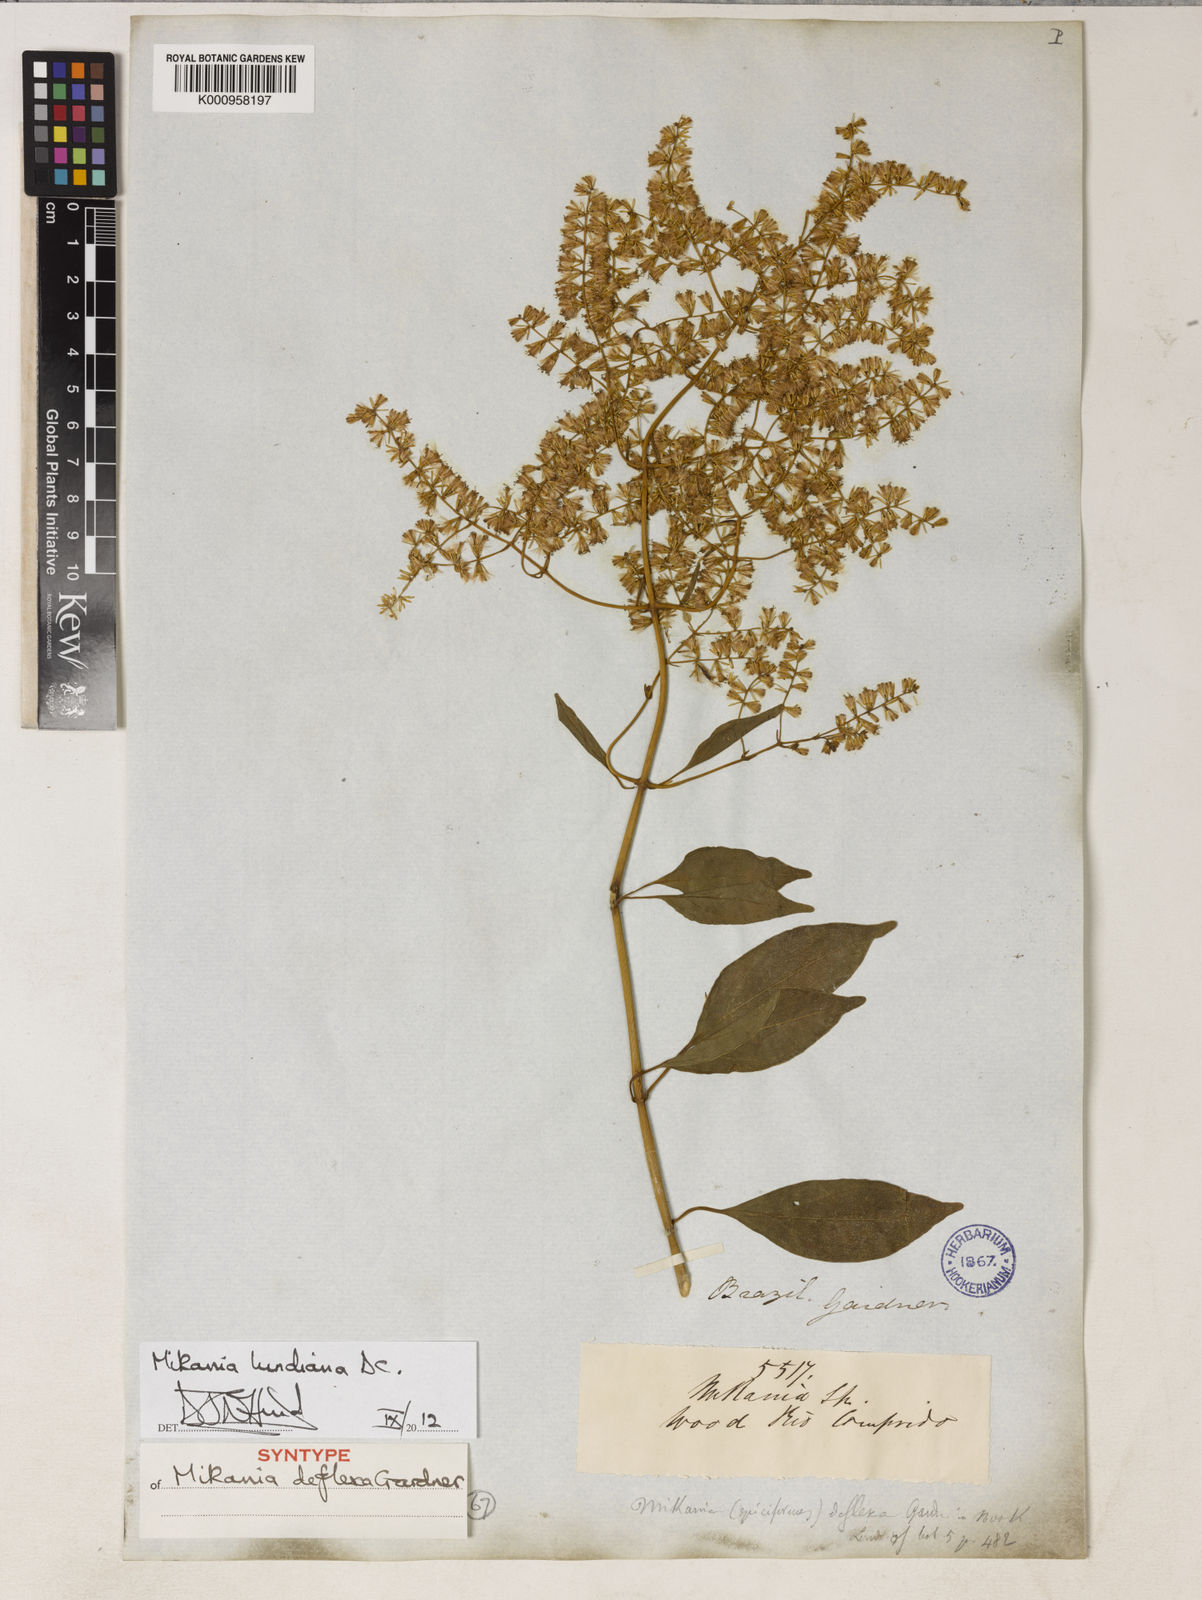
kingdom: Plantae
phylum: Tracheophyta
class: Magnoliopsida
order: Asterales
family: Asteraceae
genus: Mikania
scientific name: Mikania lundiana
